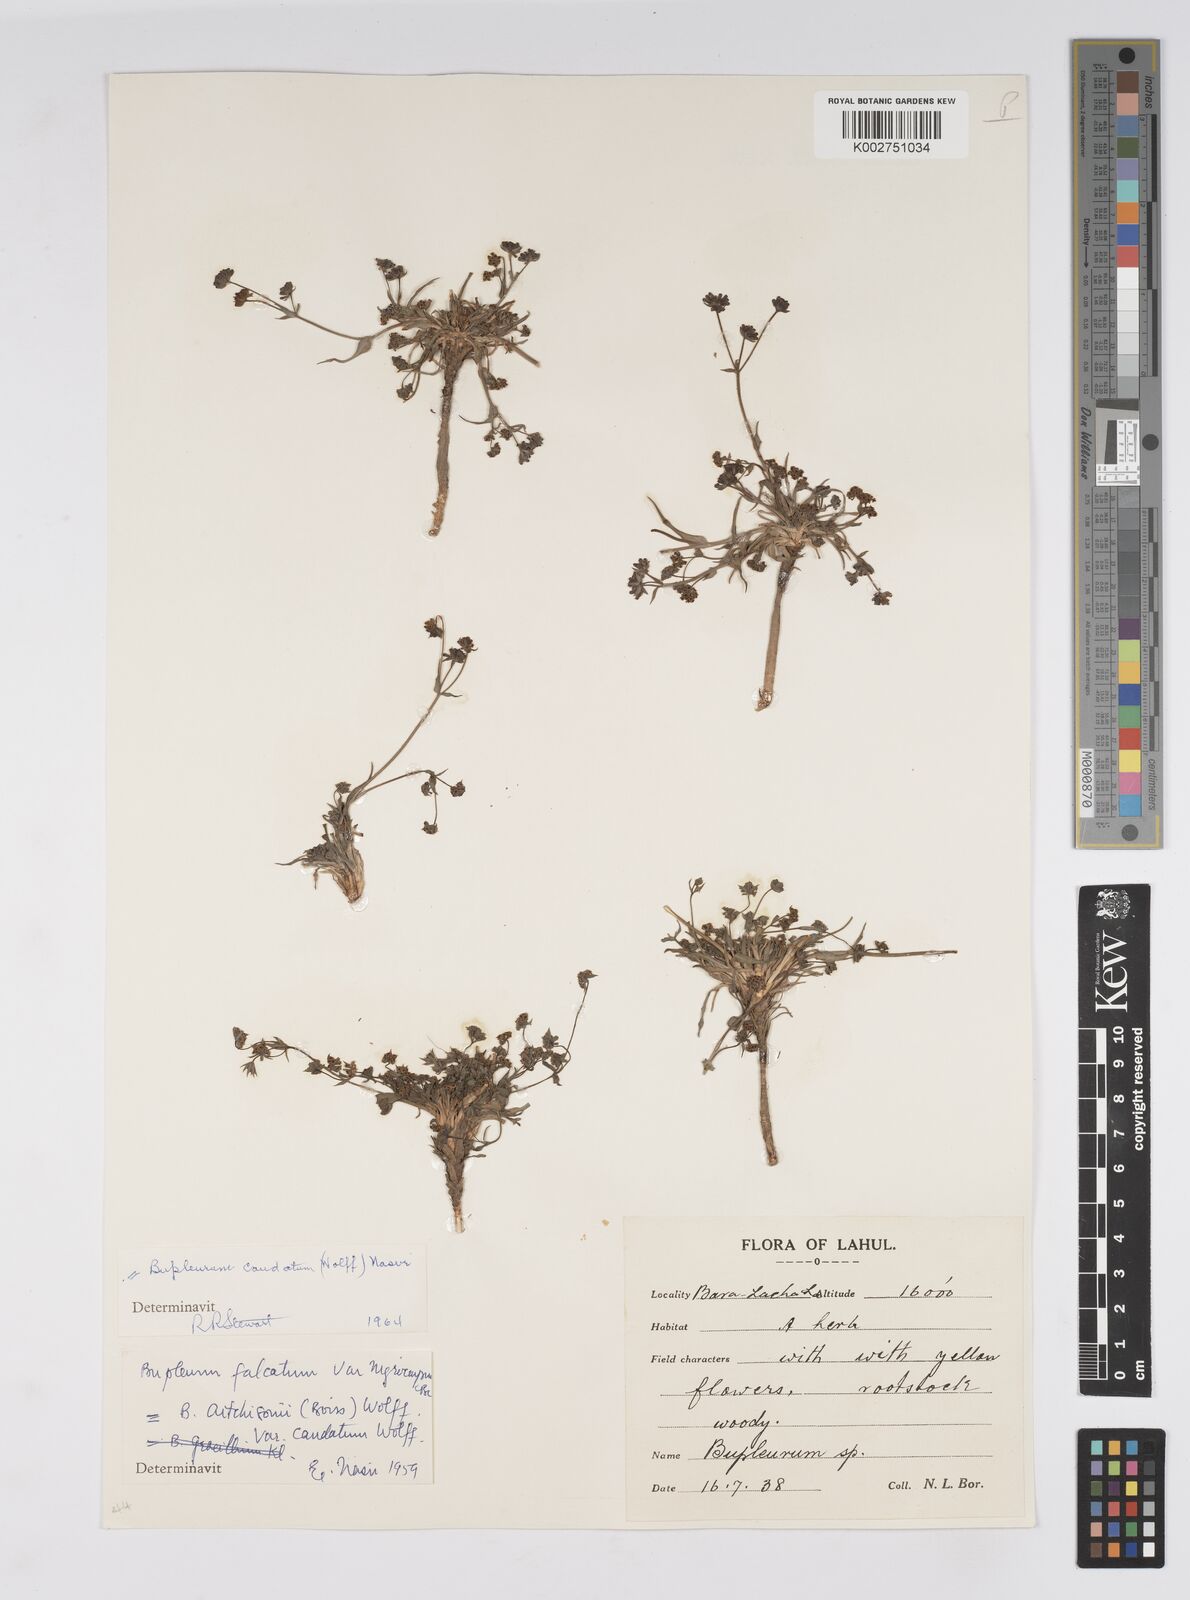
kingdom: Plantae
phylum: Tracheophyta
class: Magnoliopsida
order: Apiales
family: Apiaceae
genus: Bupleurum
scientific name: Bupleurum falcatum
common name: Sickle-leaved hare's-ear
